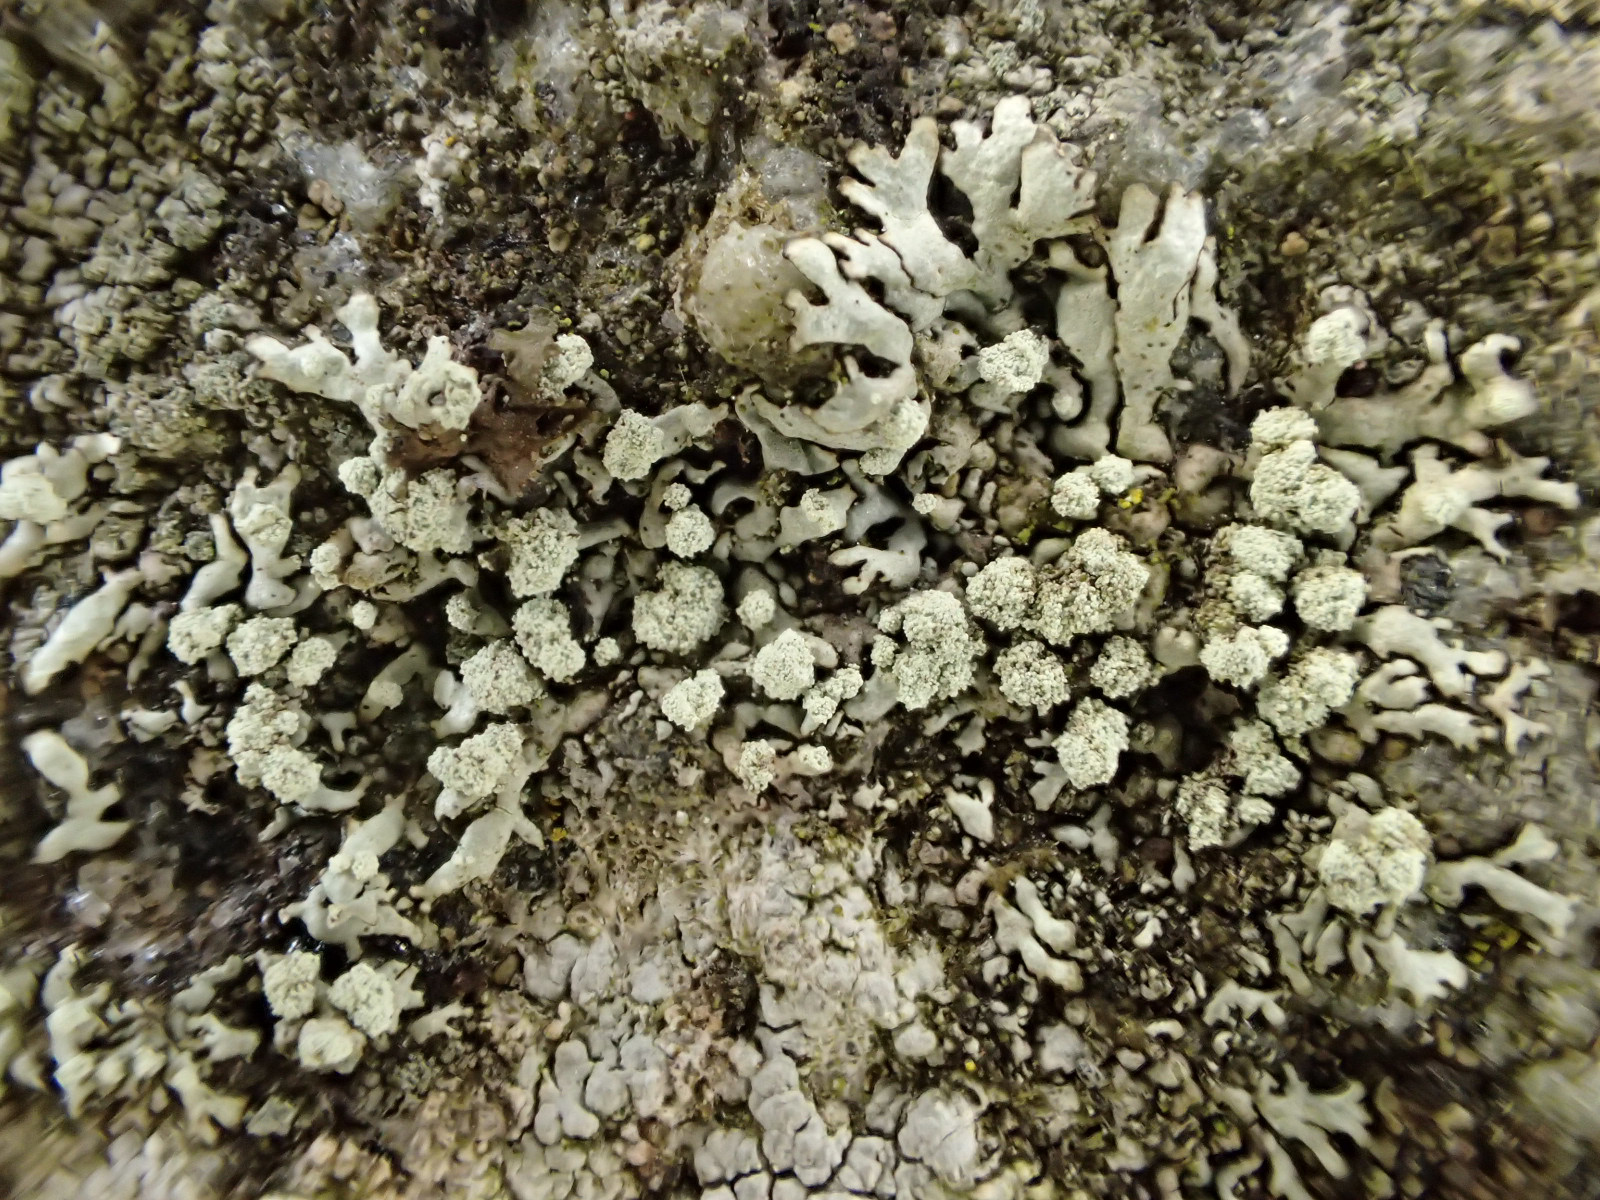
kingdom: Fungi
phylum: Ascomycota
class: Lecanoromycetes
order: Lecanorales
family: Parmeliaceae
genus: Arctoparmelia
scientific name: Arctoparmelia incurva
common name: krum skållav
